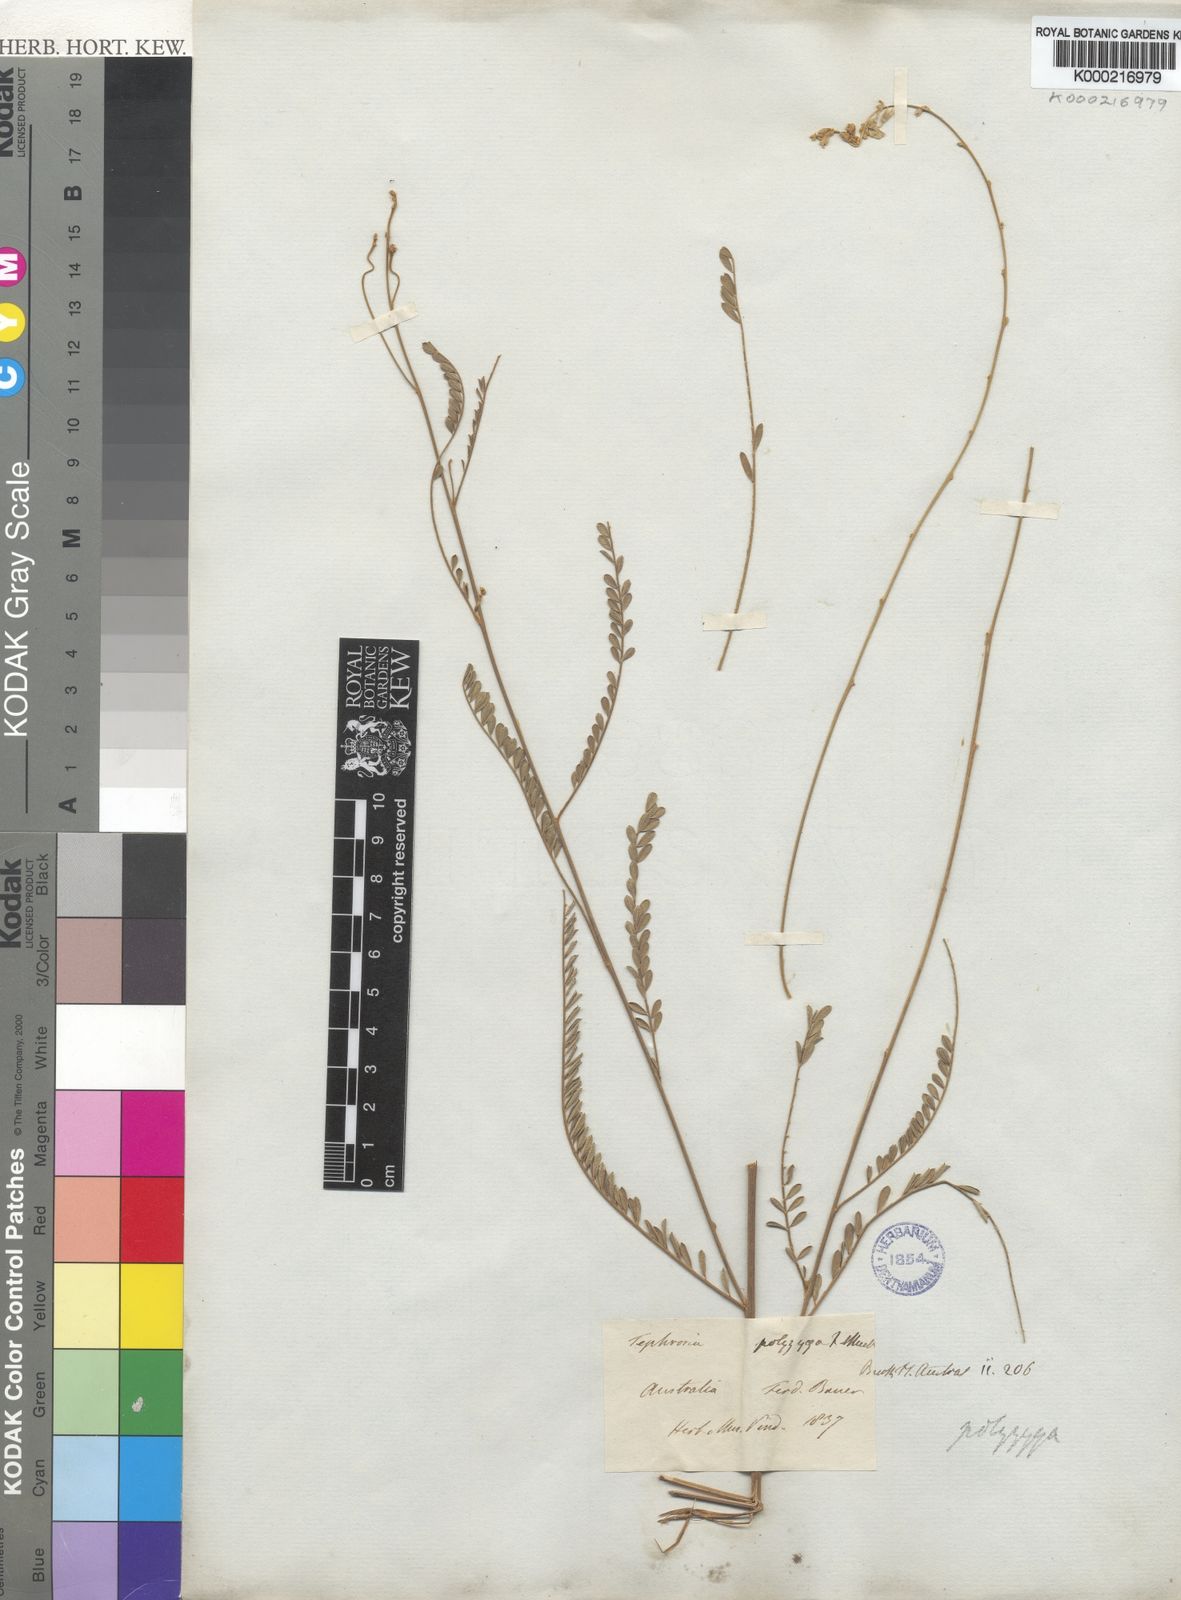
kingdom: Plantae
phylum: Tracheophyta
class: Magnoliopsida
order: Fabales
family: Fabaceae
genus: Tephrosia
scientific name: Tephrosia polyzyga
